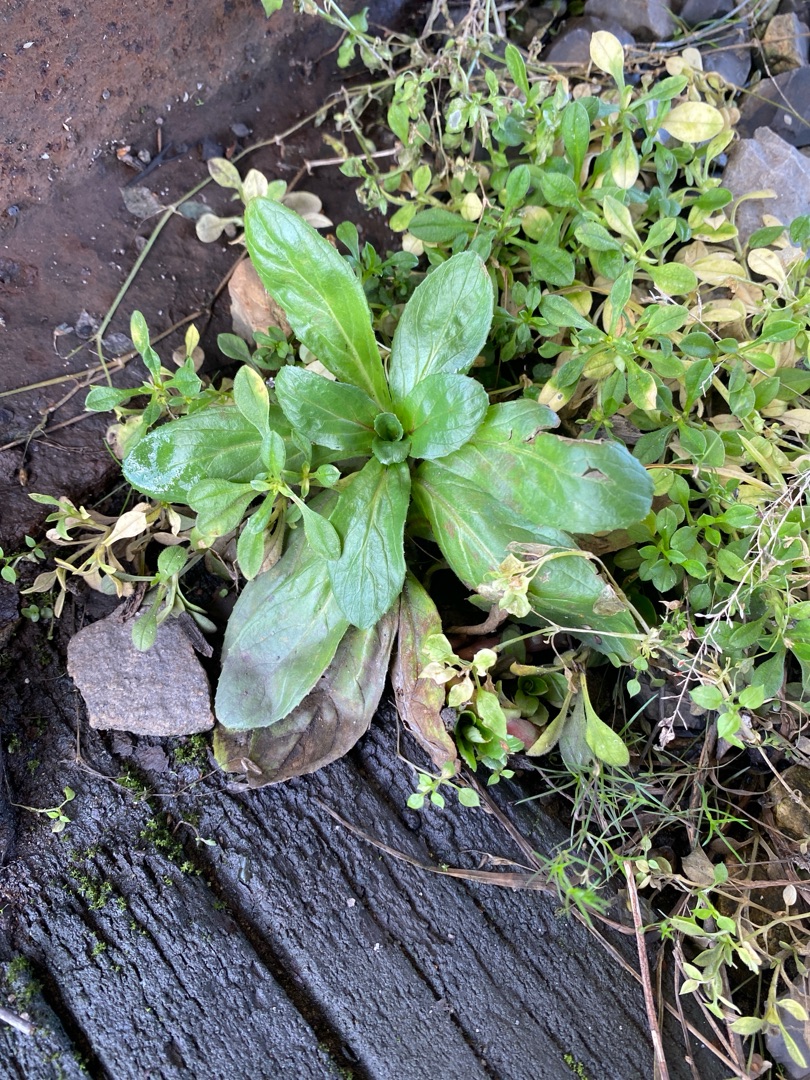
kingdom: Plantae
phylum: Tracheophyta
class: Magnoliopsida
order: Myrtales
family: Onagraceae
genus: Epilobium
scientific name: Epilobium hirsutum
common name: Lådden dueurt
